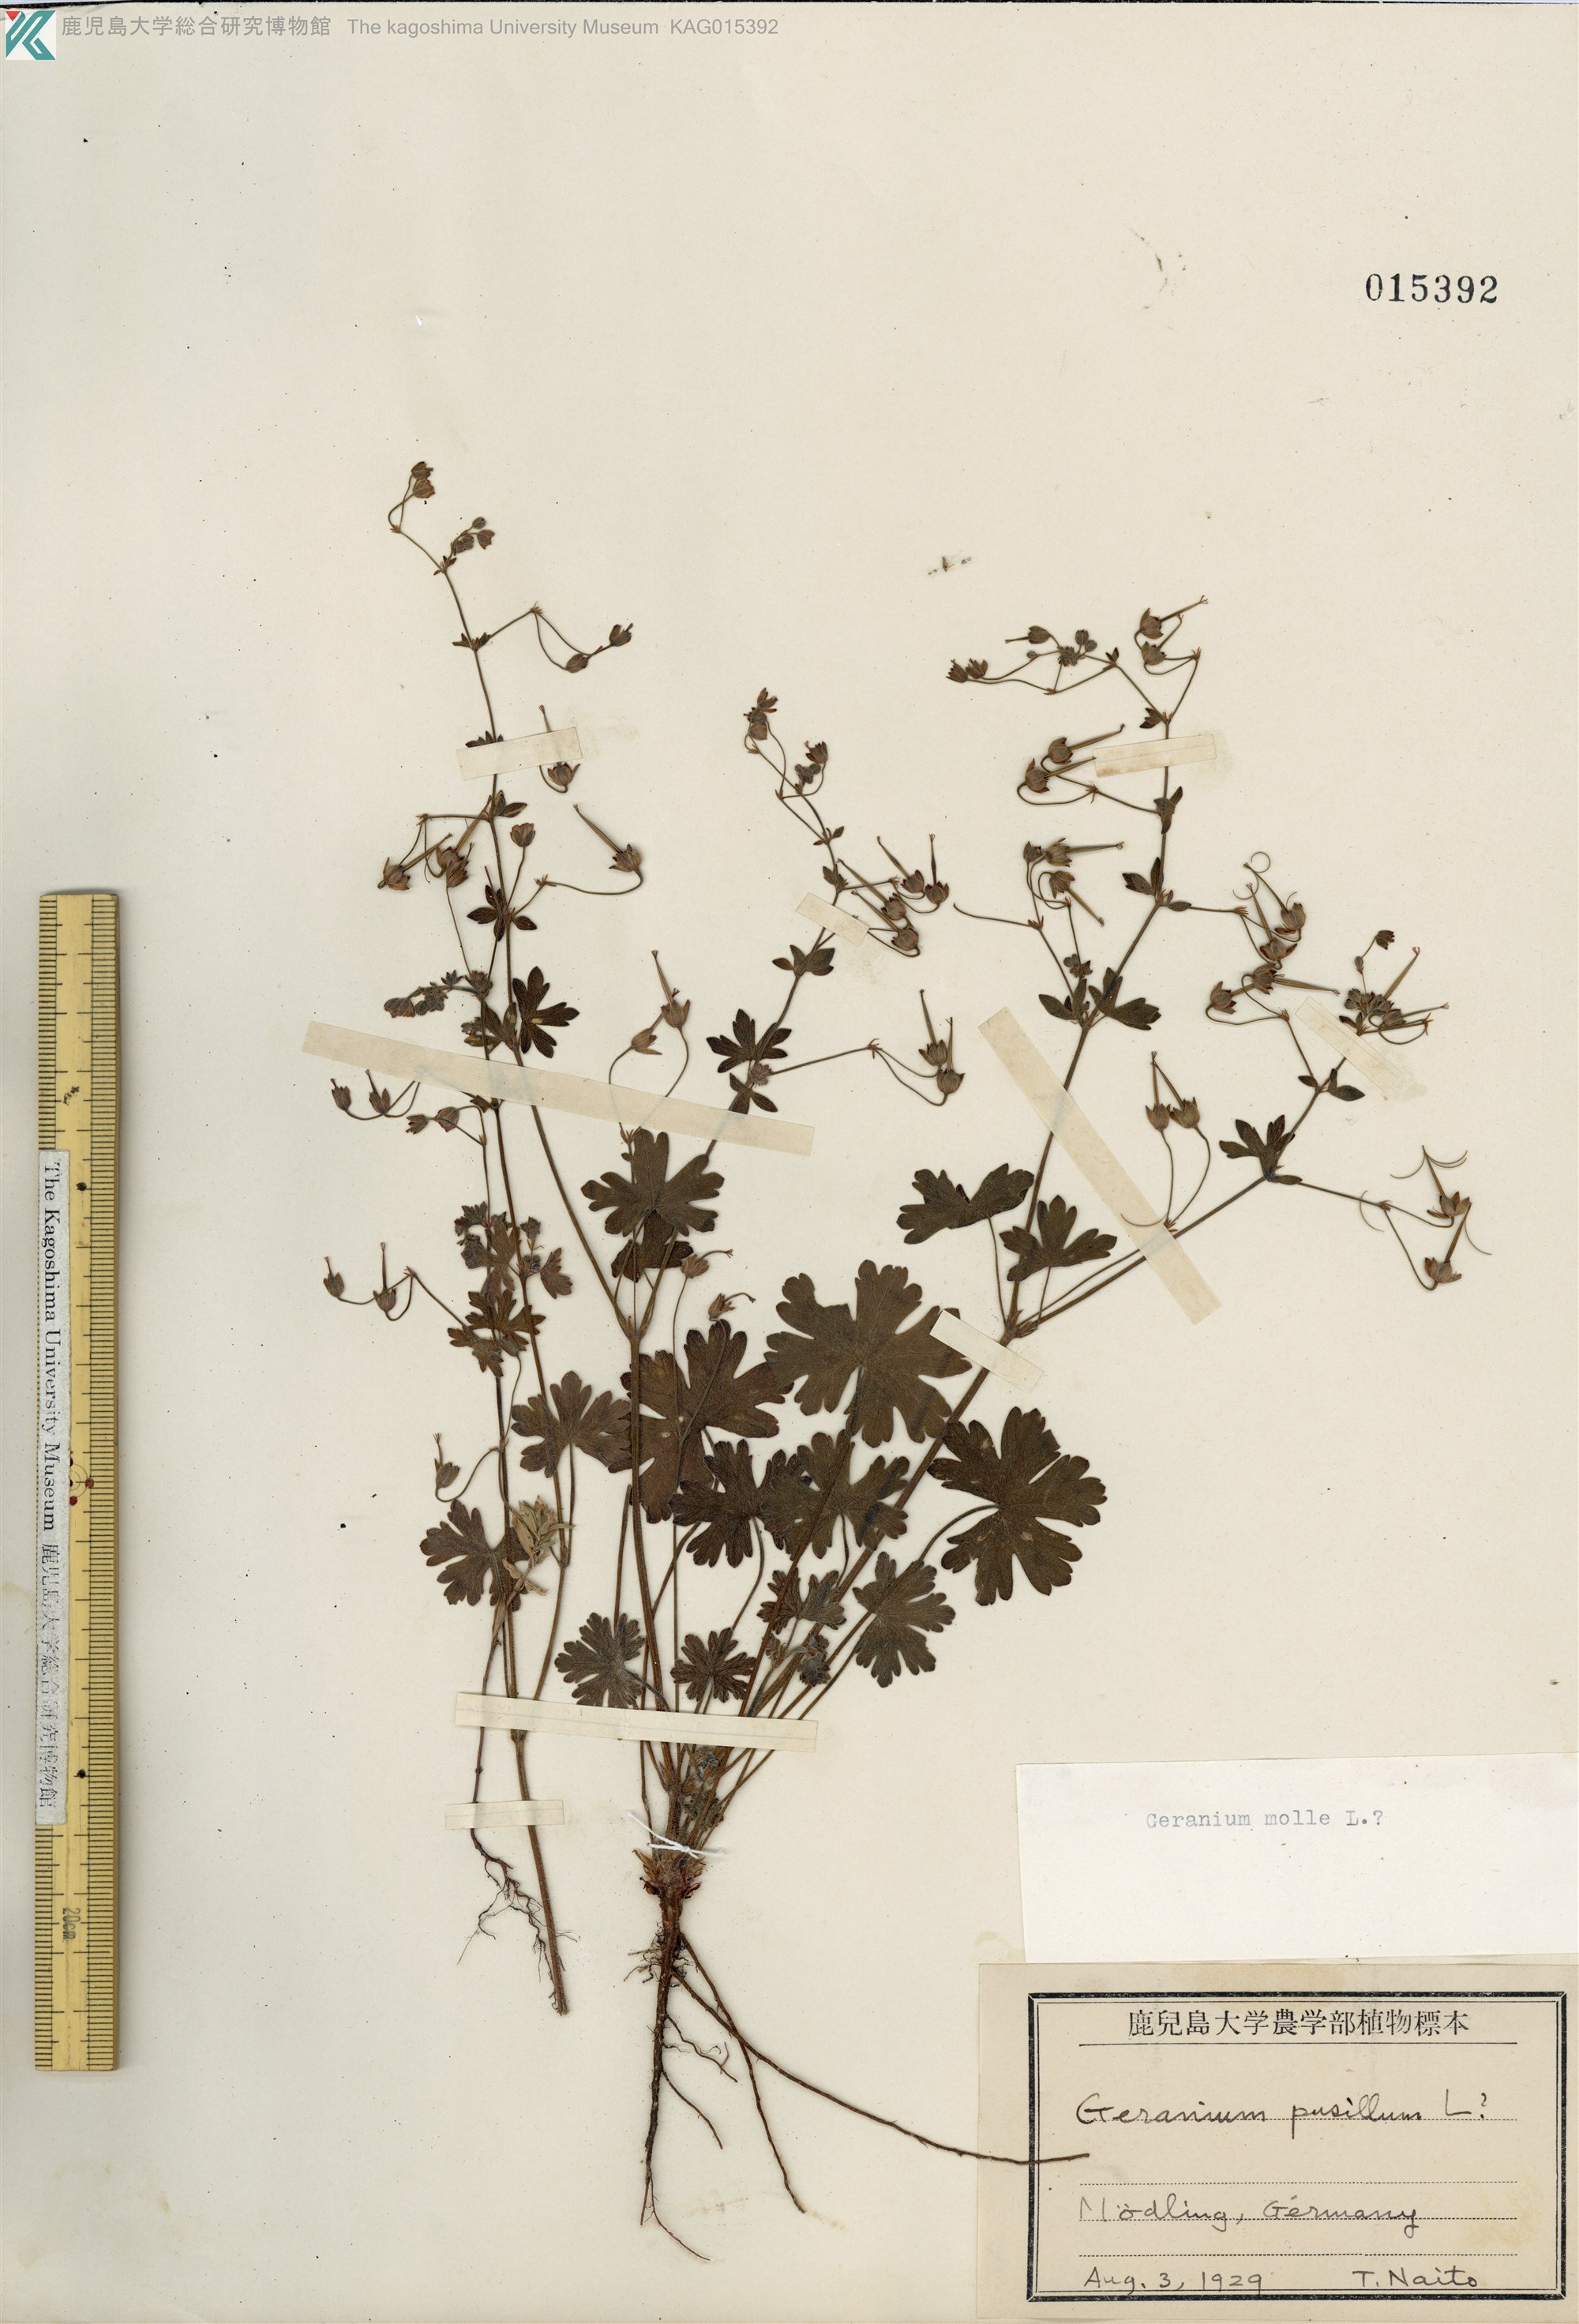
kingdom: Plantae
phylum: Tracheophyta
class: Magnoliopsida
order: Geraniales
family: Geraniaceae
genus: Geranium
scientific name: Geranium molle
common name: Dove's-foot crane's-bill
